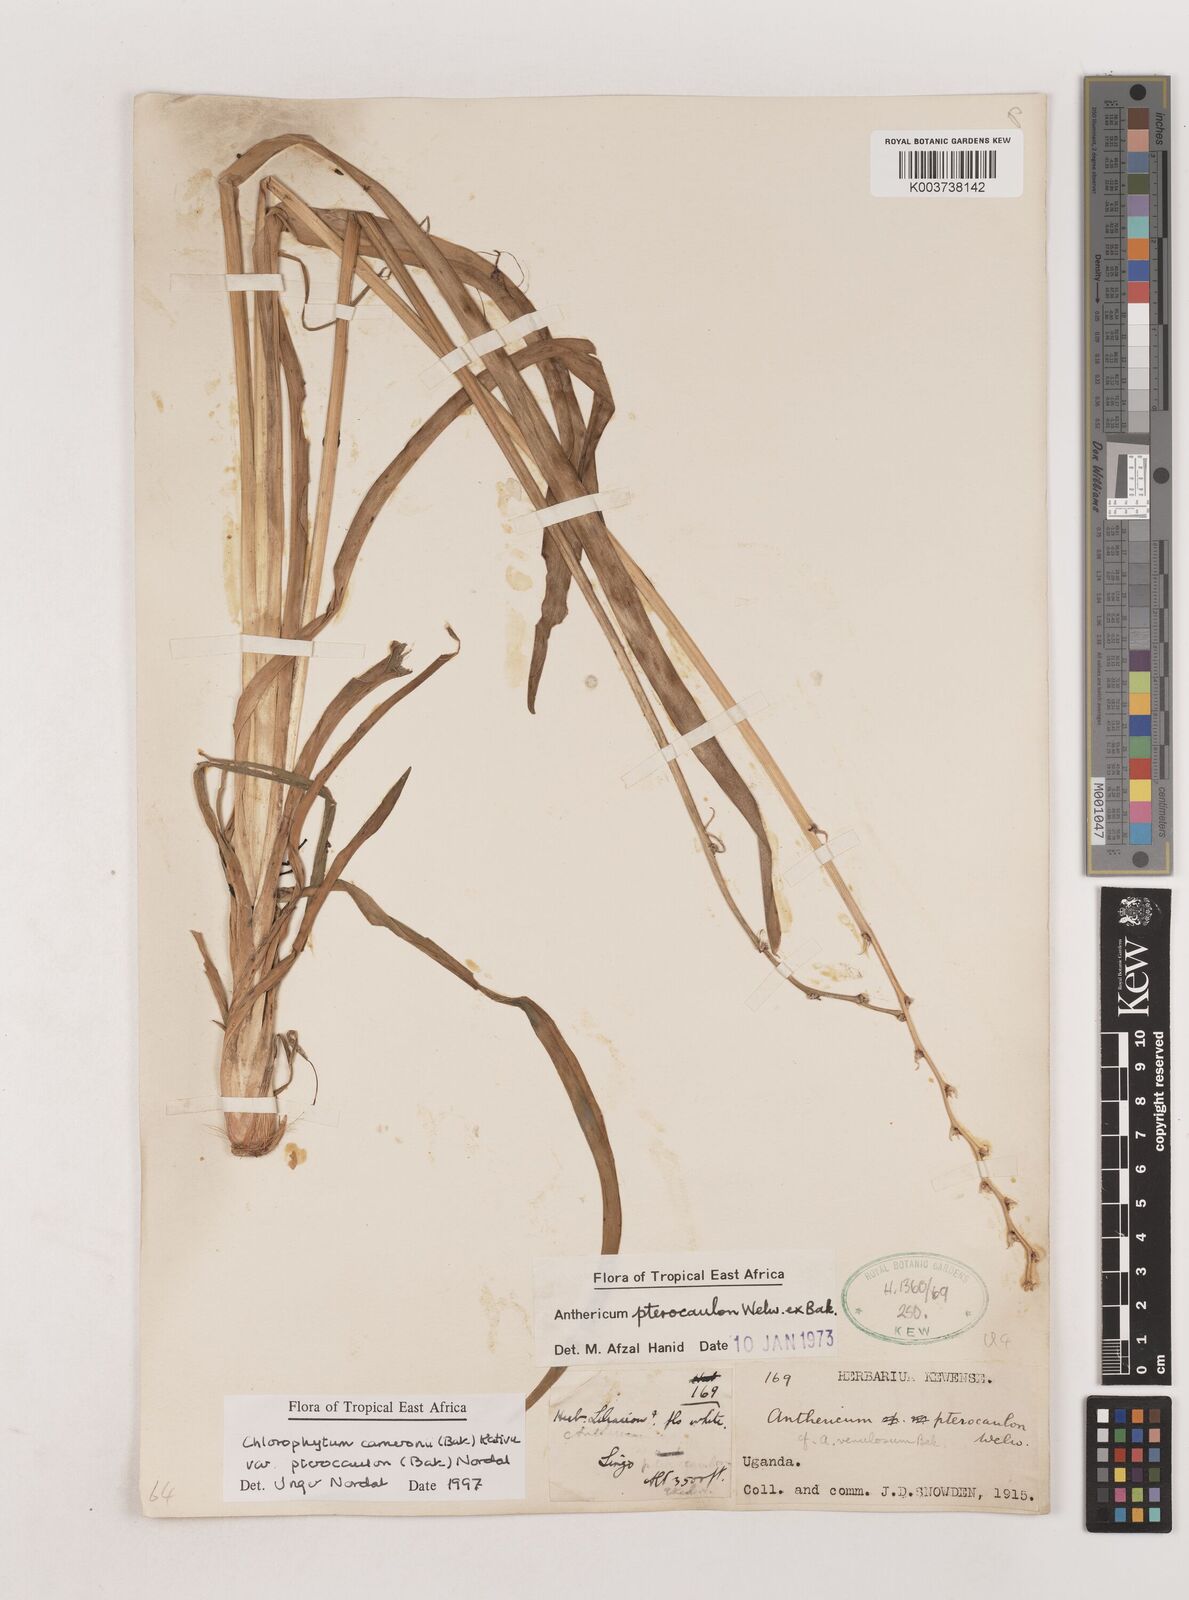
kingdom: Plantae
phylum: Tracheophyta
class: Liliopsida
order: Asparagales
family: Asparagaceae
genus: Chlorophytum
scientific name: Chlorophytum cameronii
